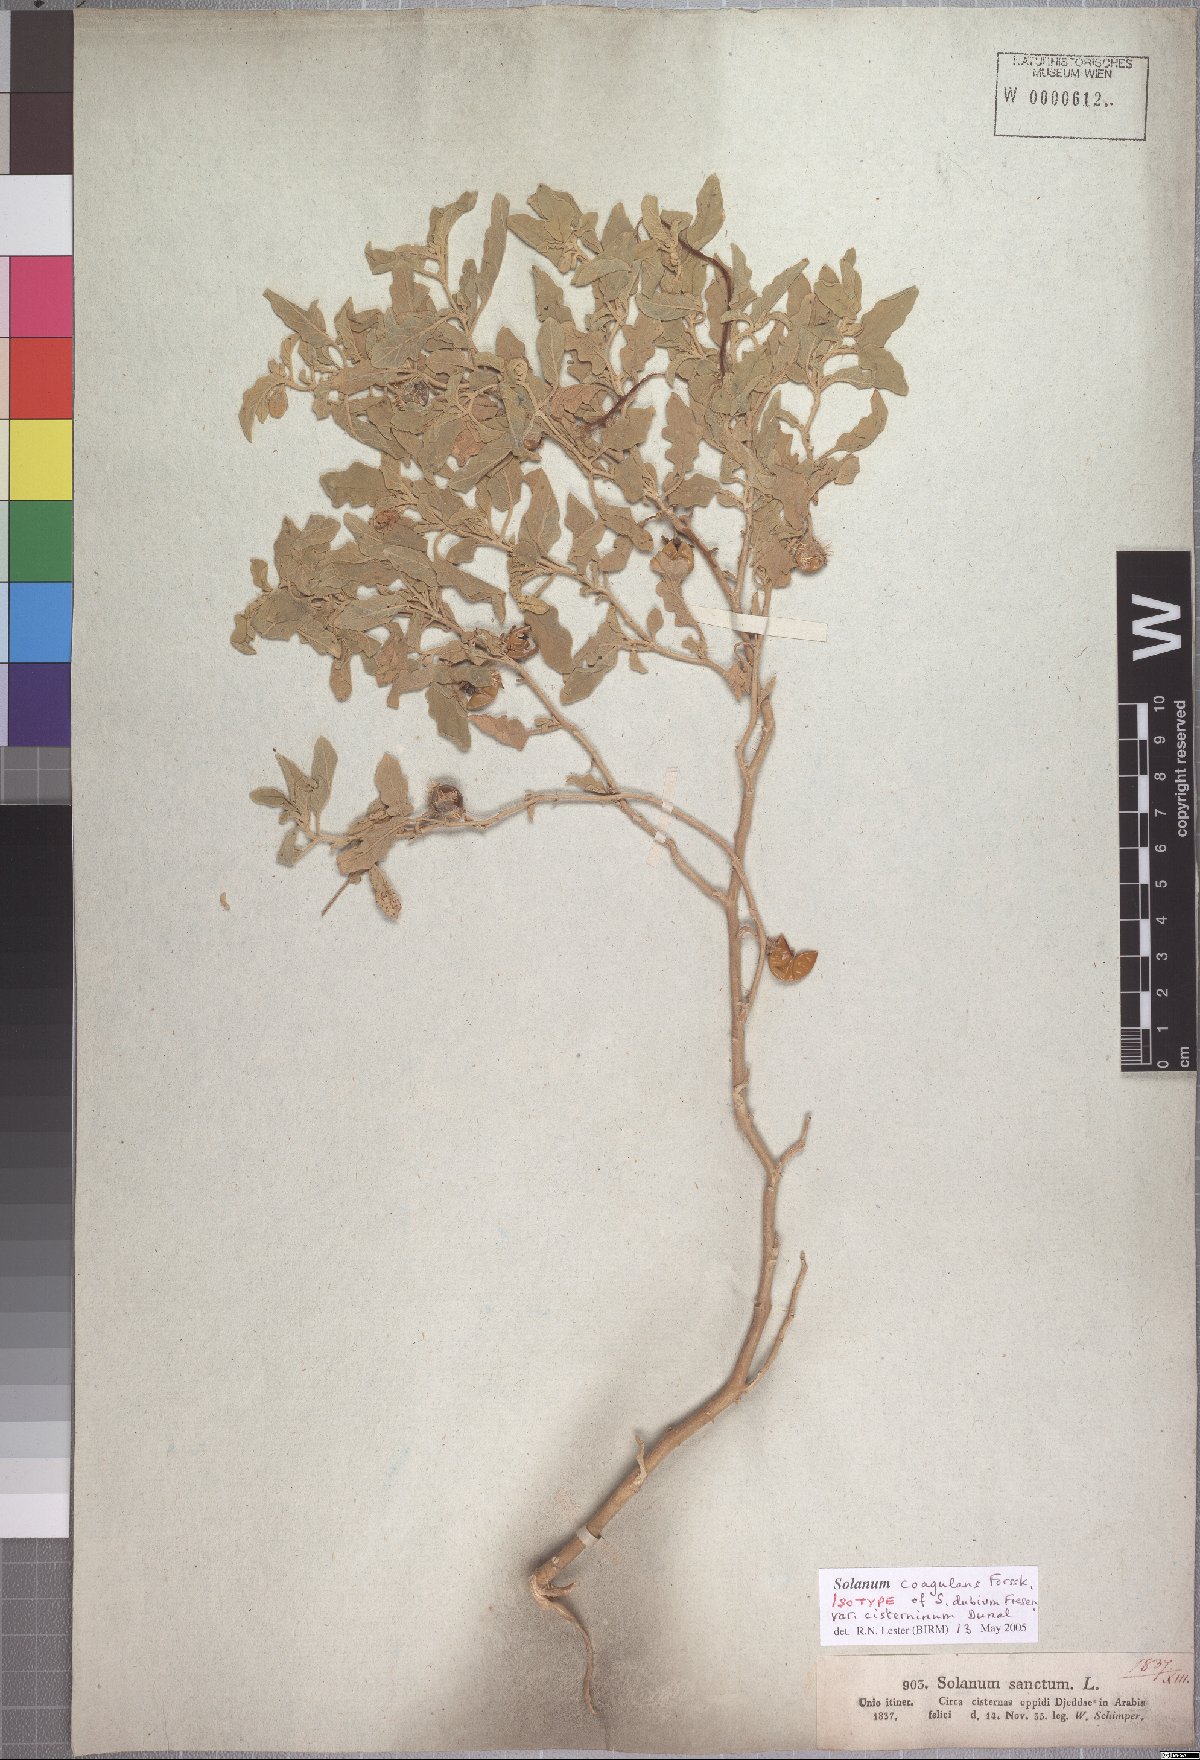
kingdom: Plantae
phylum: Tracheophyta
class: Magnoliopsida
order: Solanales
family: Solanaceae
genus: Solanum
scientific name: Solanum coagulans
